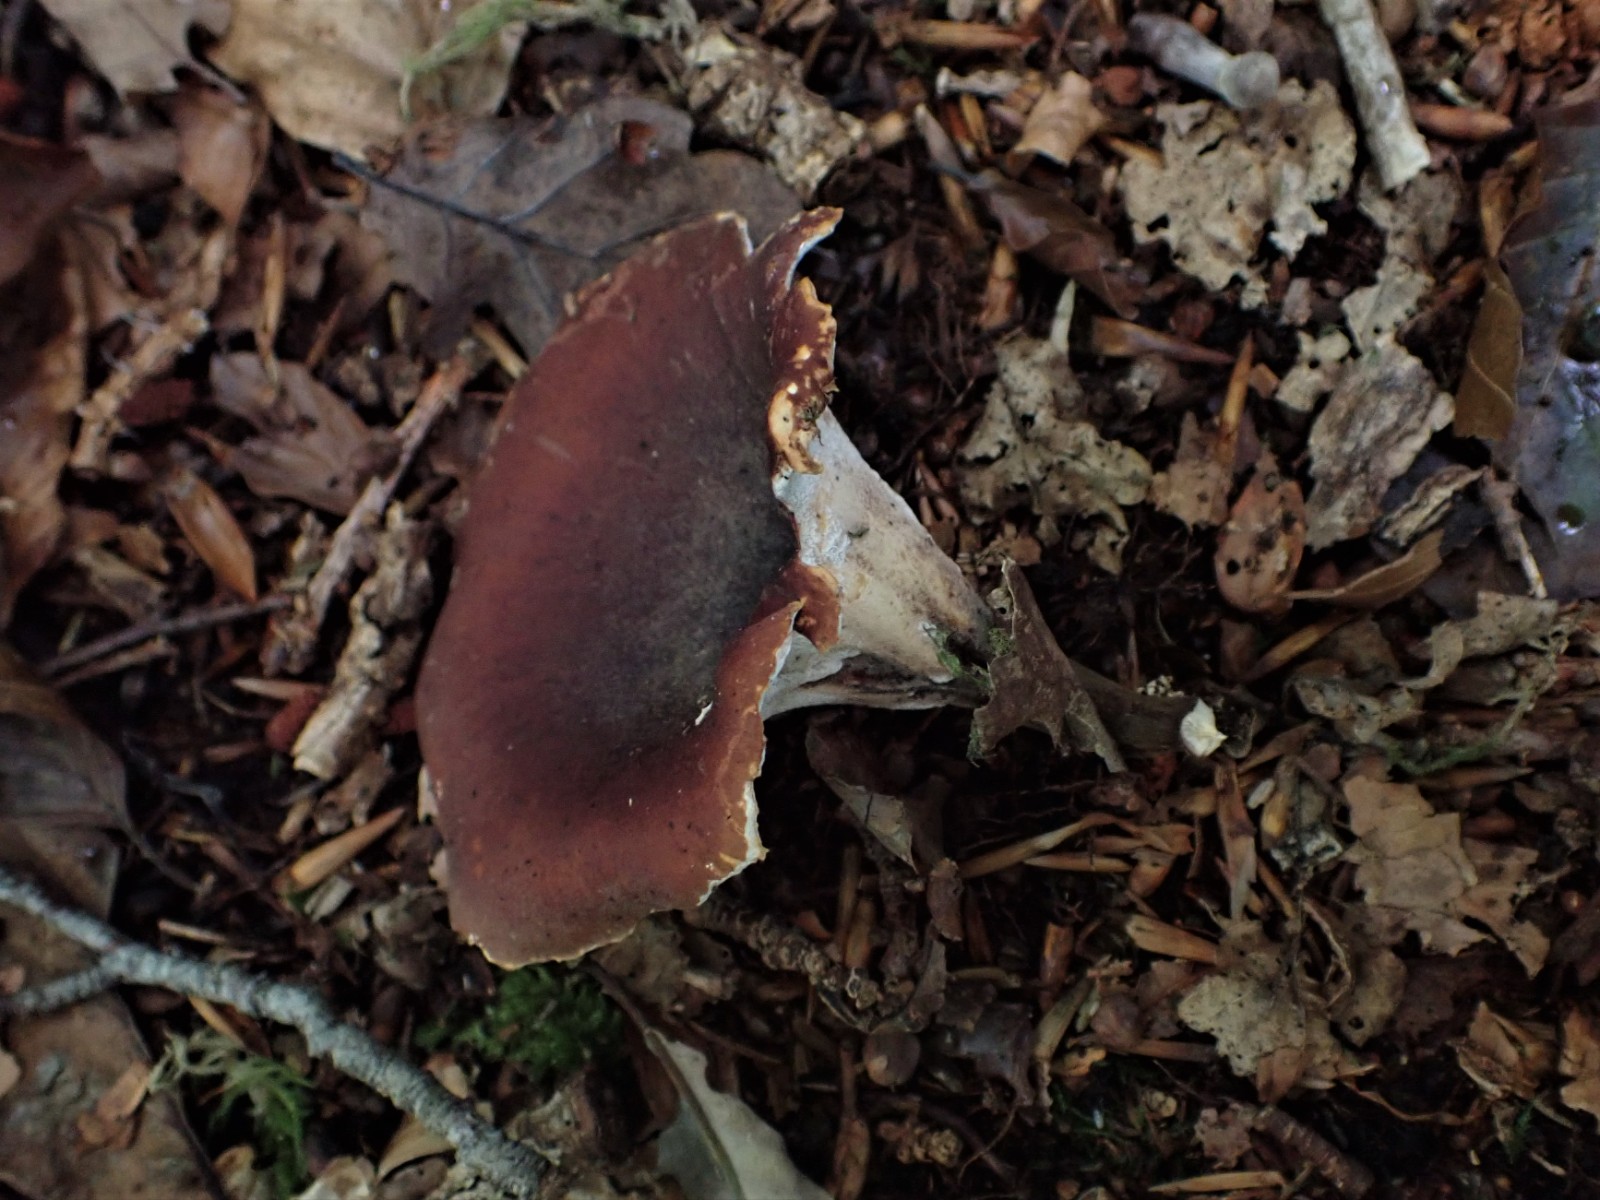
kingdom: Fungi
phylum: Basidiomycota
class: Agaricomycetes
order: Polyporales
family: Polyporaceae
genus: Picipes
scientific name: Picipes badius
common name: kastaniebrun stilkporesvamp
